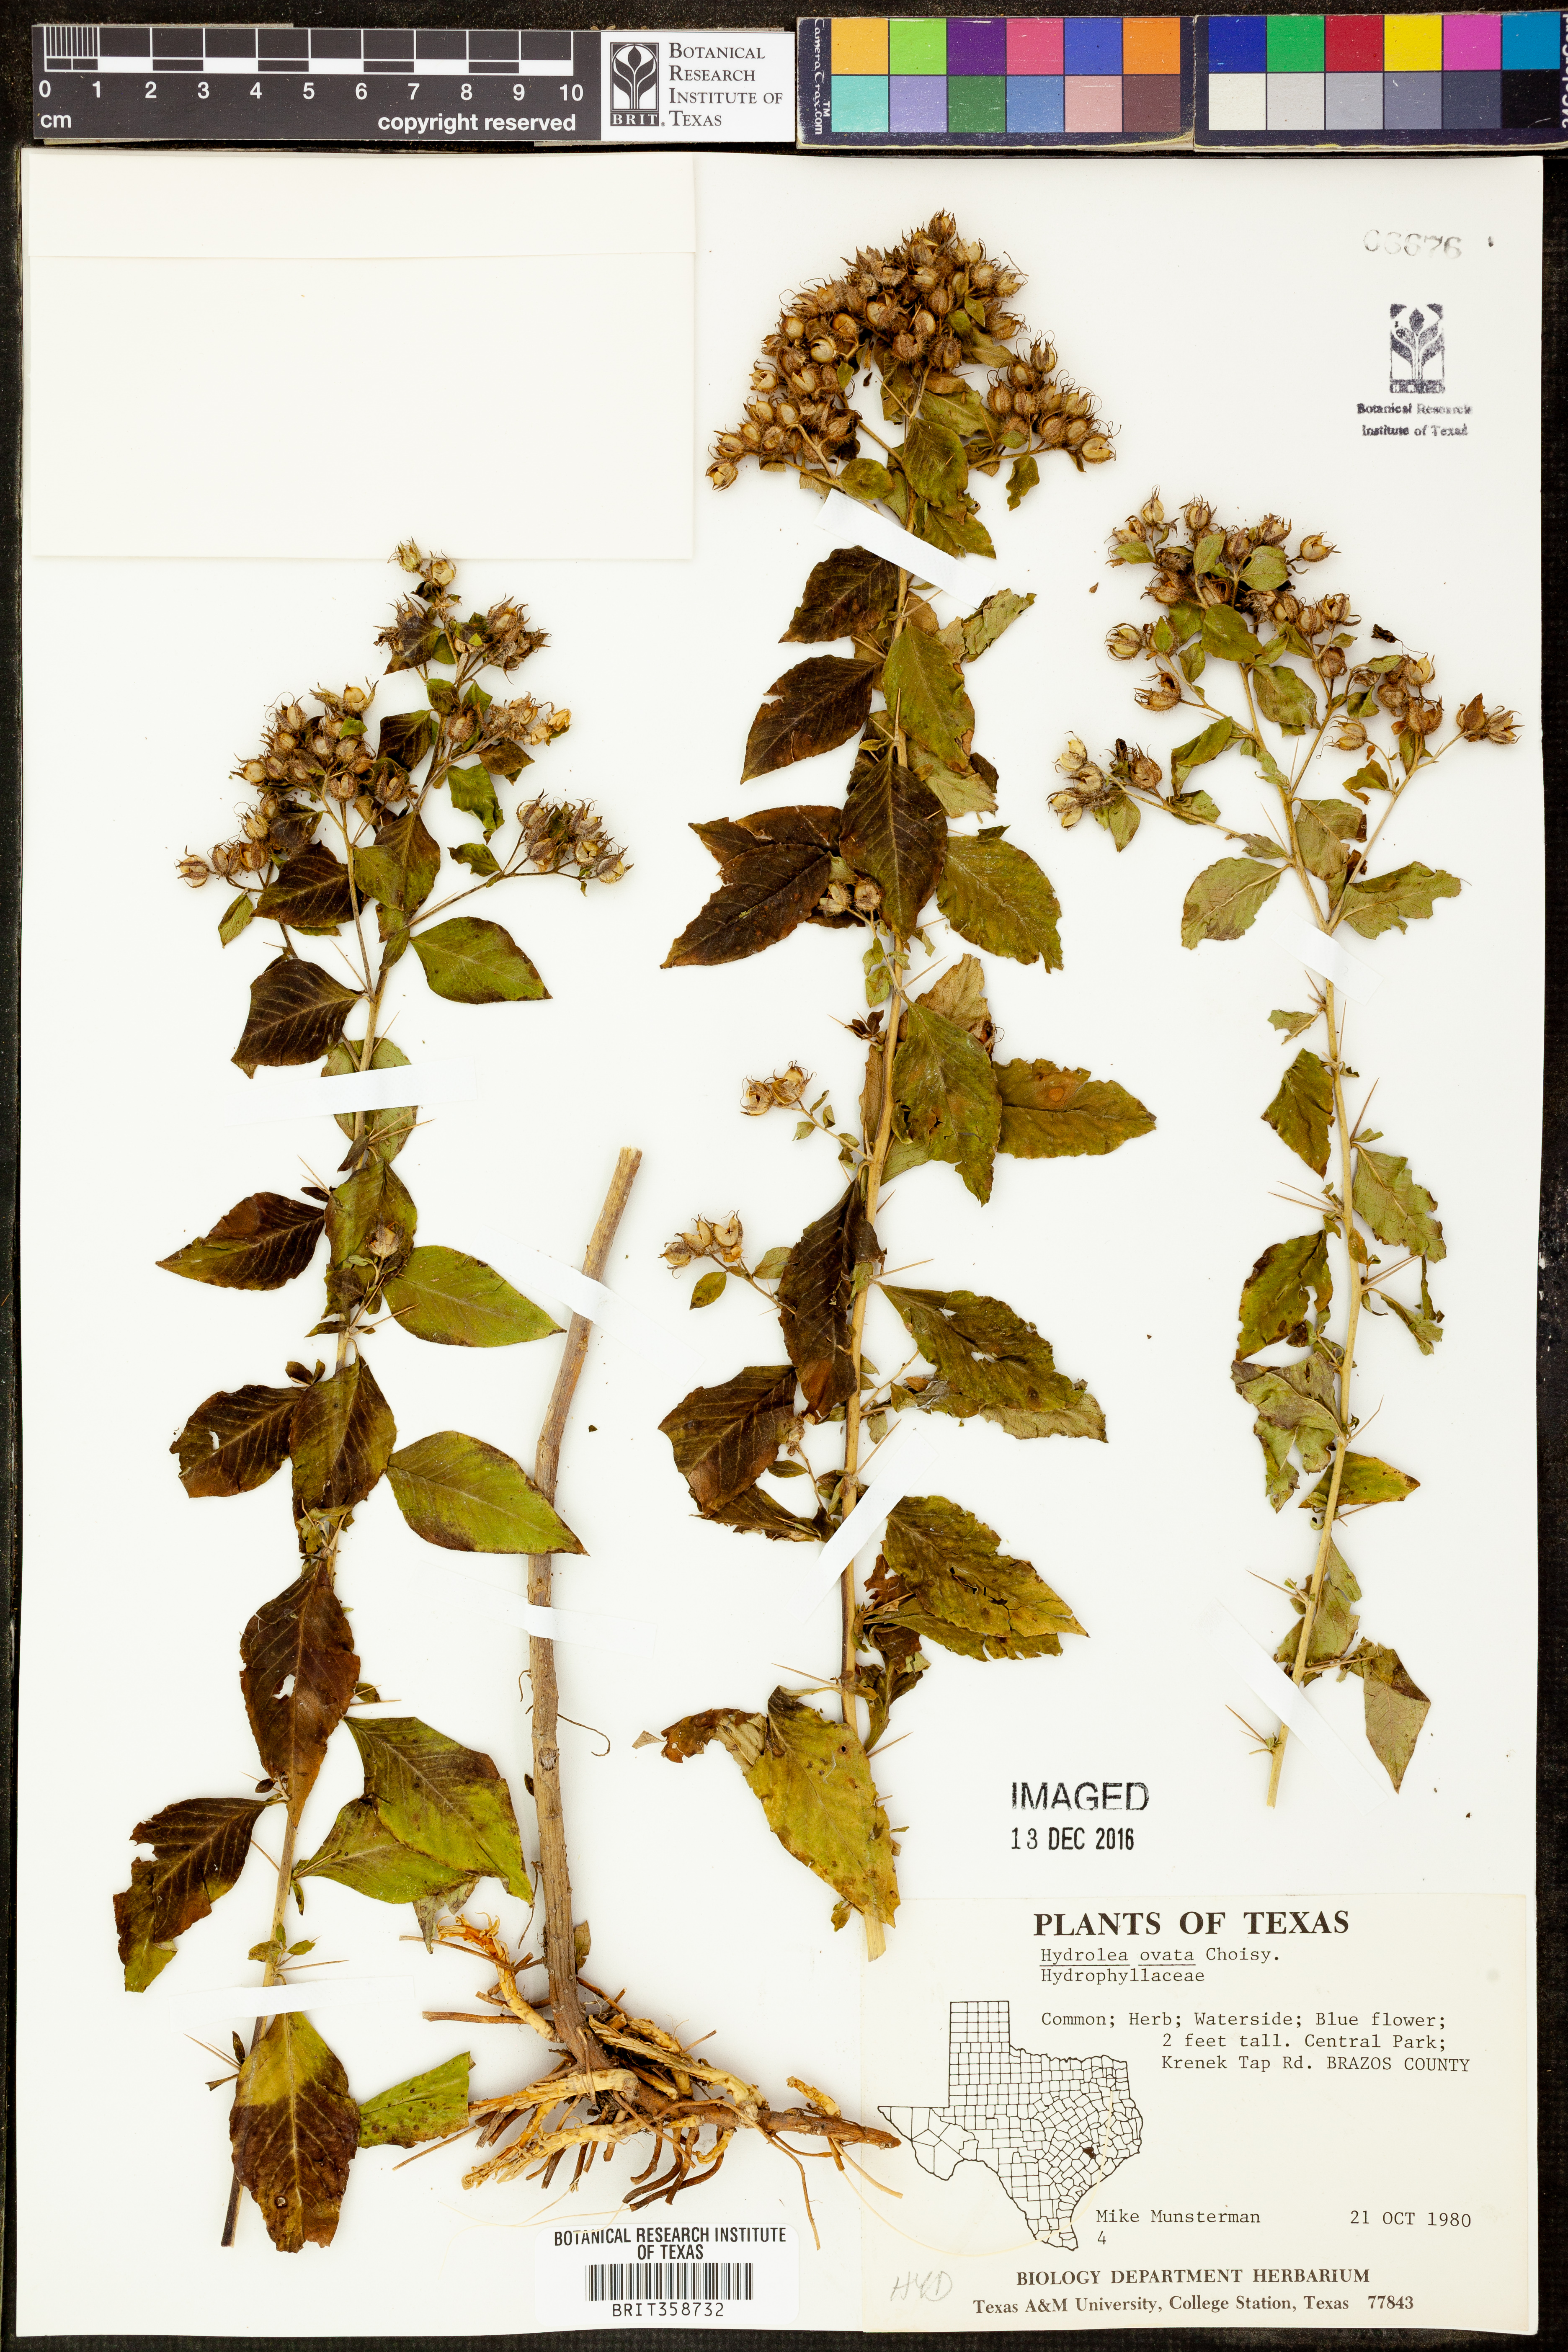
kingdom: Plantae
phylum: Tracheophyta
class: Magnoliopsida
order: Solanales
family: Hydroleaceae
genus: Hydrolea
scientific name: Hydrolea ovata
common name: Ovate false fiddleleaf
